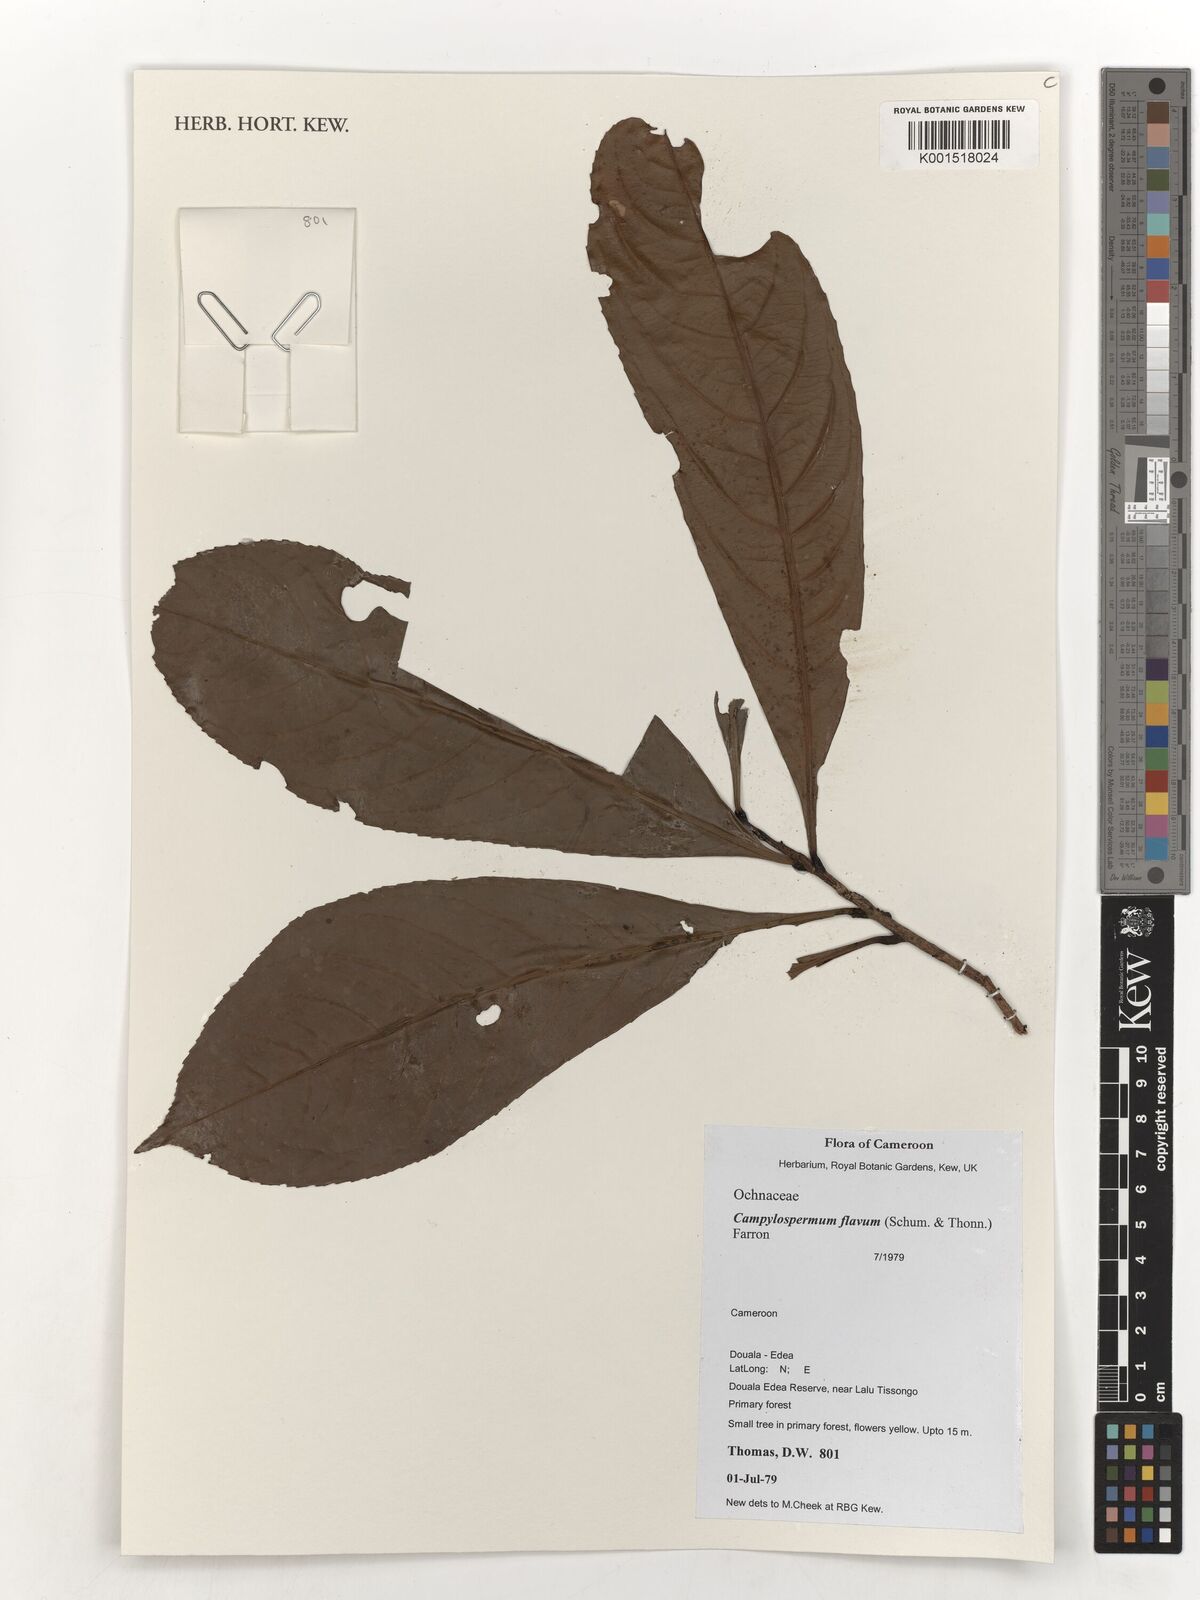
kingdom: Plantae
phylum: Tracheophyta
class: Magnoliopsida
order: Malpighiales
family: Ochnaceae
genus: Campylospermum
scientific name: Campylospermum calanthum
